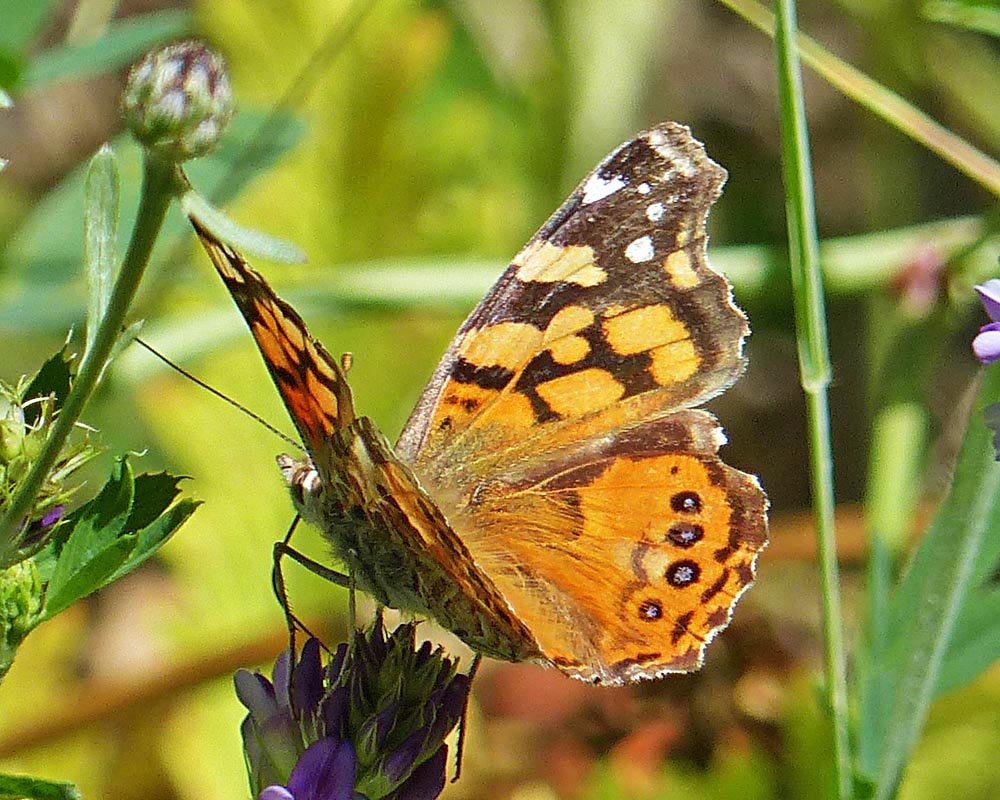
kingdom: Animalia
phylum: Arthropoda
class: Insecta
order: Lepidoptera
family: Nymphalidae
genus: Vanessa
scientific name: Vanessa annabella
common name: West Coast Lady
